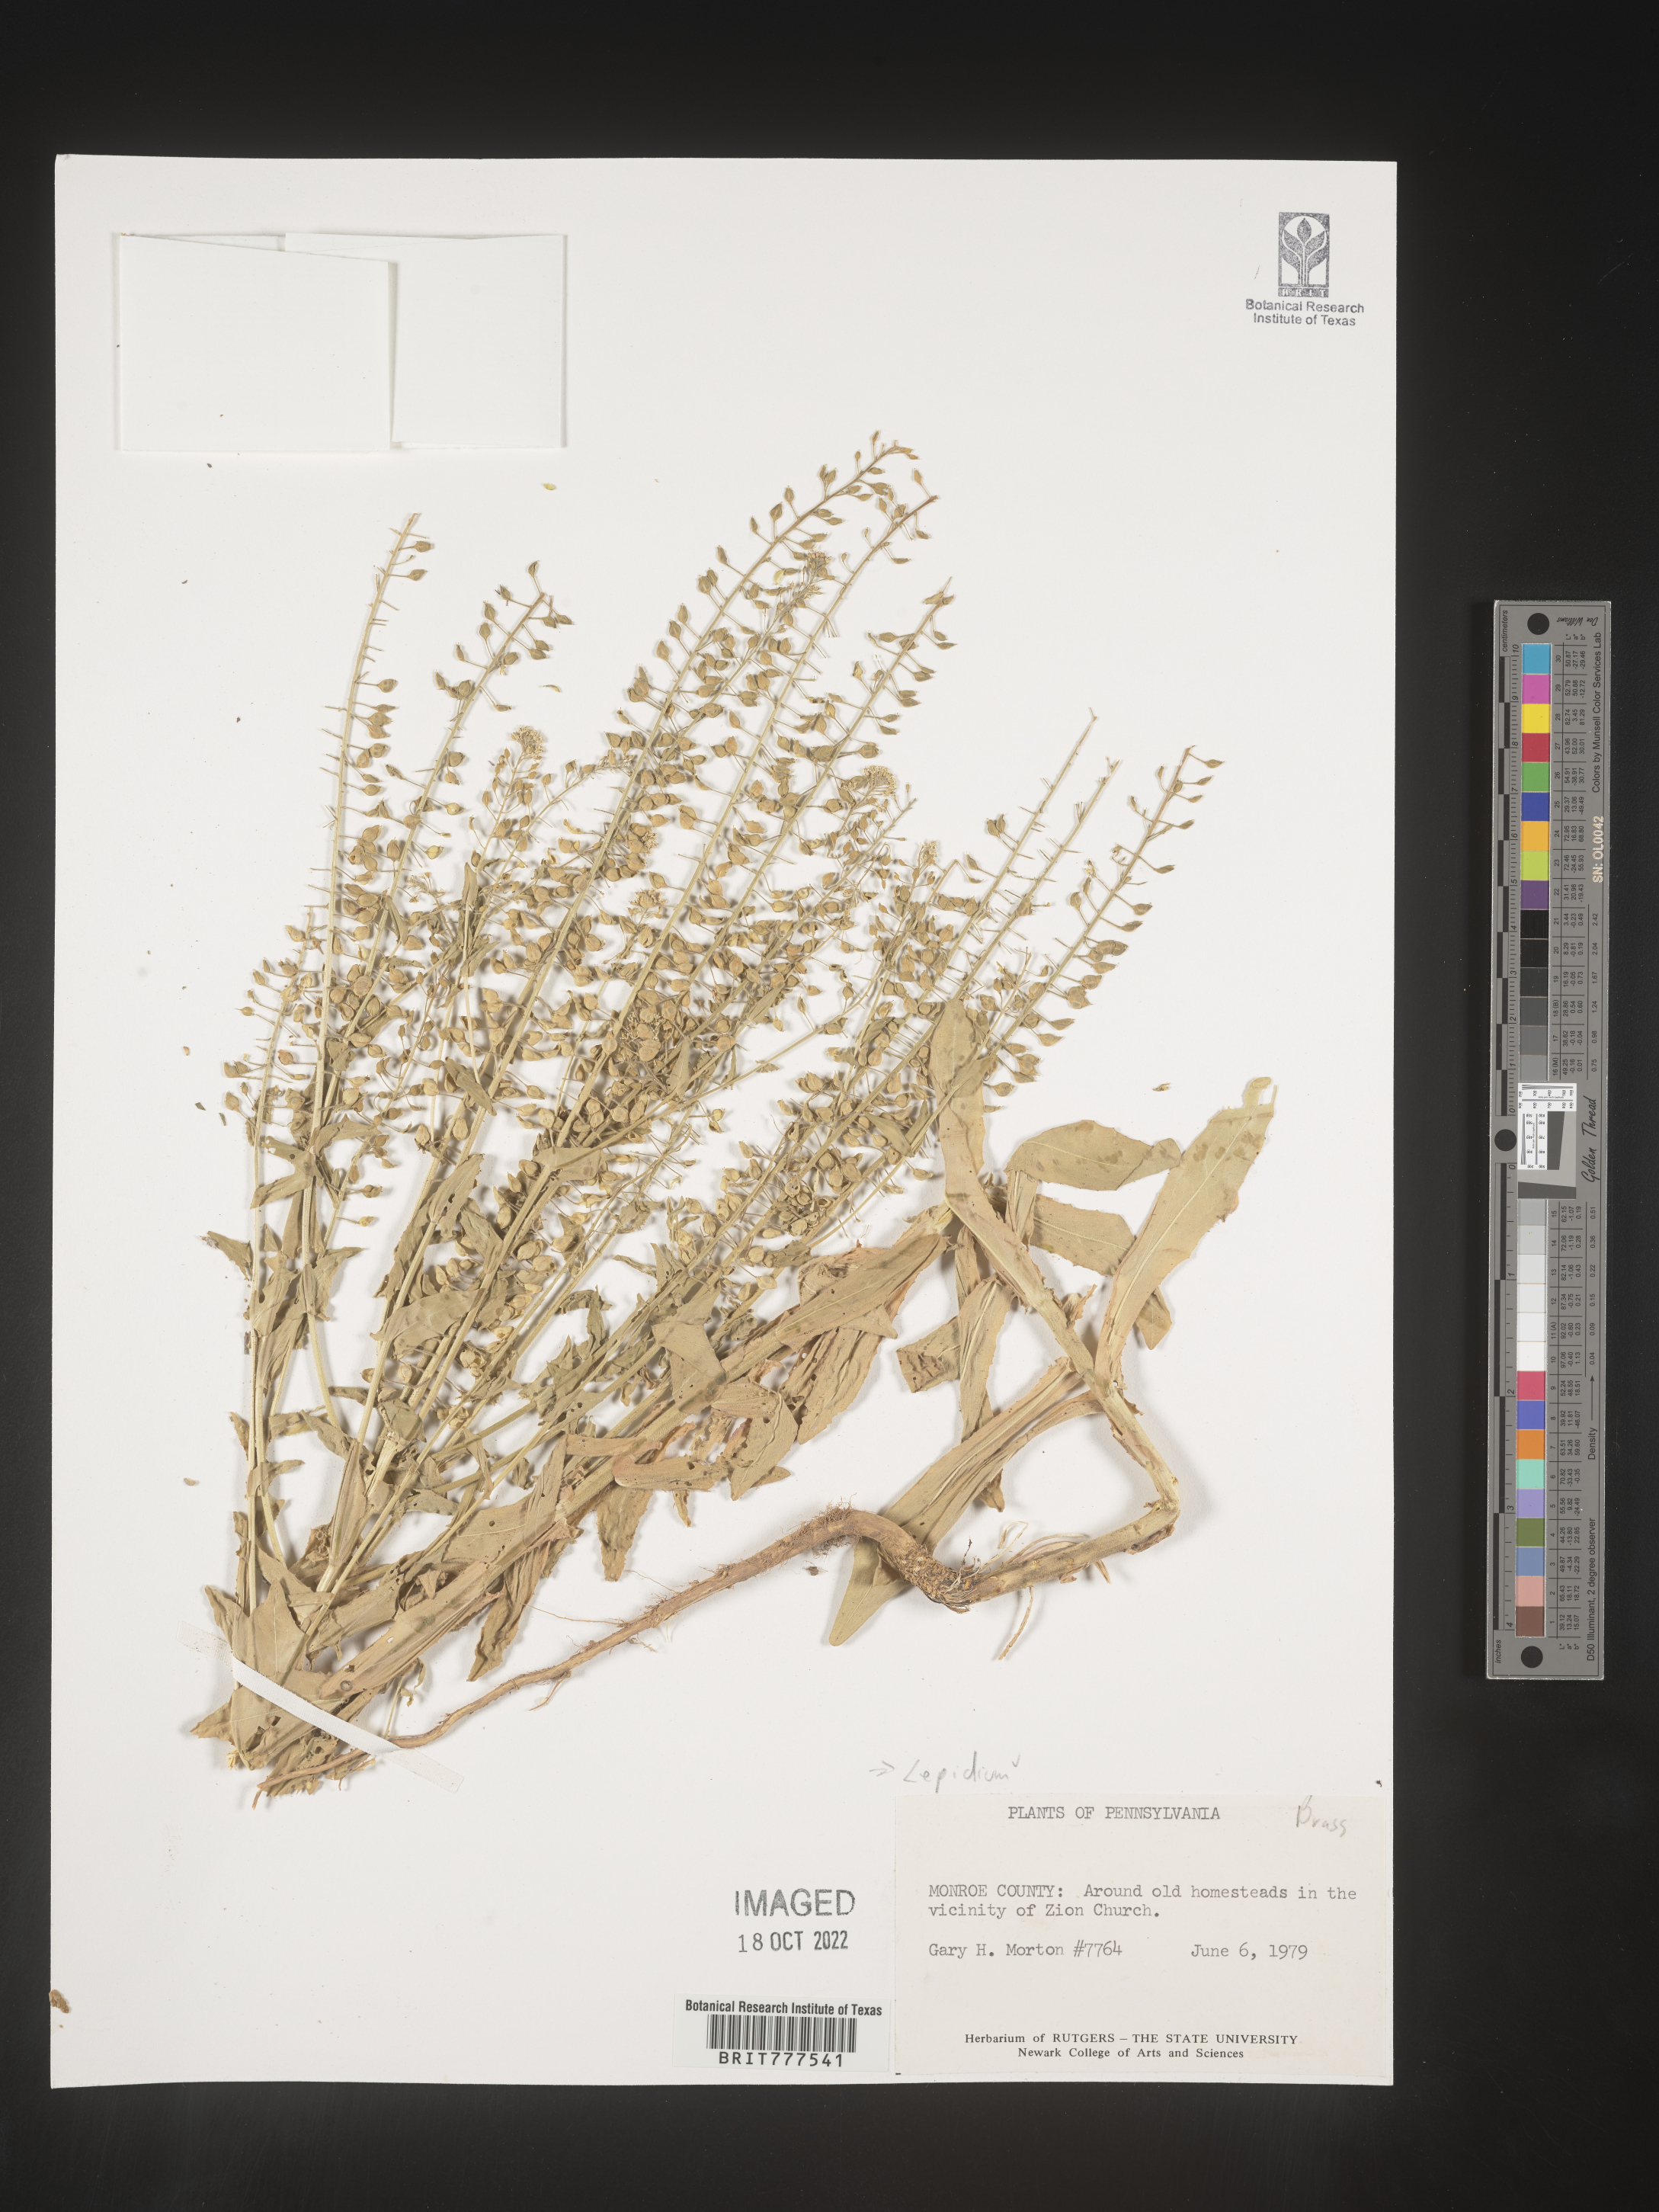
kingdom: Plantae
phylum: Tracheophyta
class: Magnoliopsida
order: Brassicales
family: Brassicaceae
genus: Lepidium
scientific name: Lepidium
